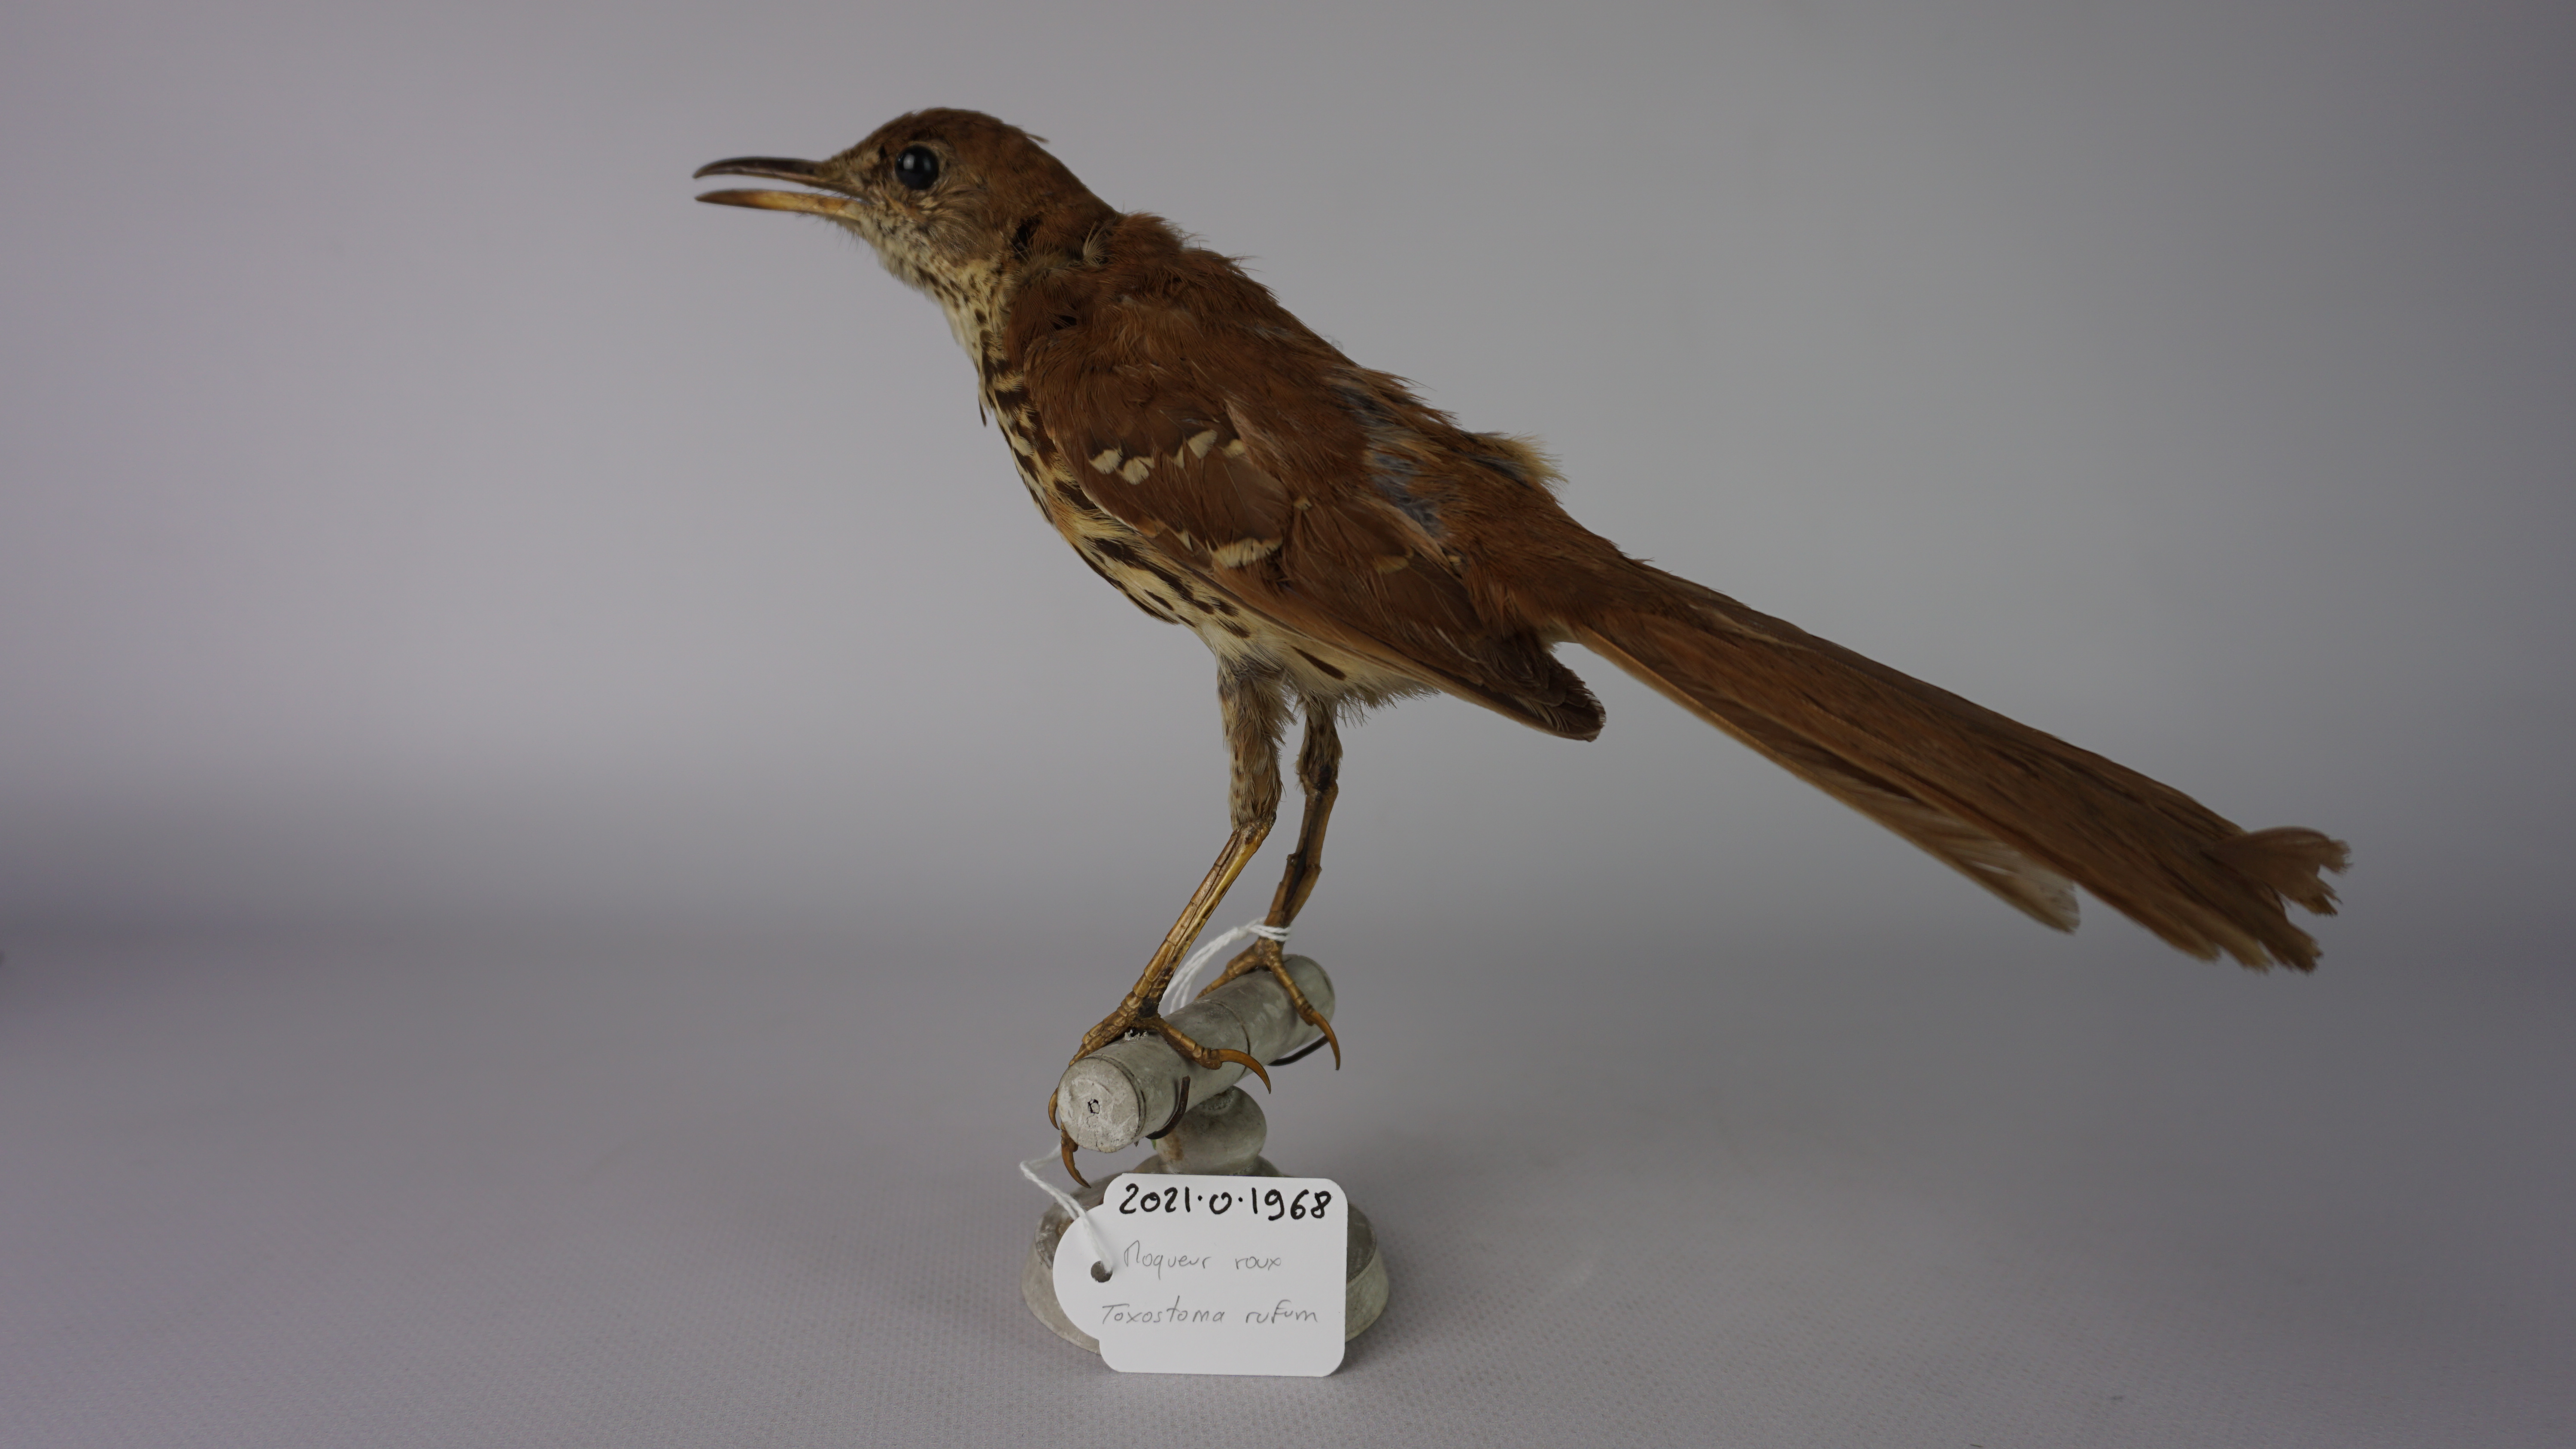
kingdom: Animalia
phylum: Chordata
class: Aves
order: Passeriformes
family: Mimidae
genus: Toxostoma
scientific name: Toxostoma longirostre
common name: Long-billed thrasher
